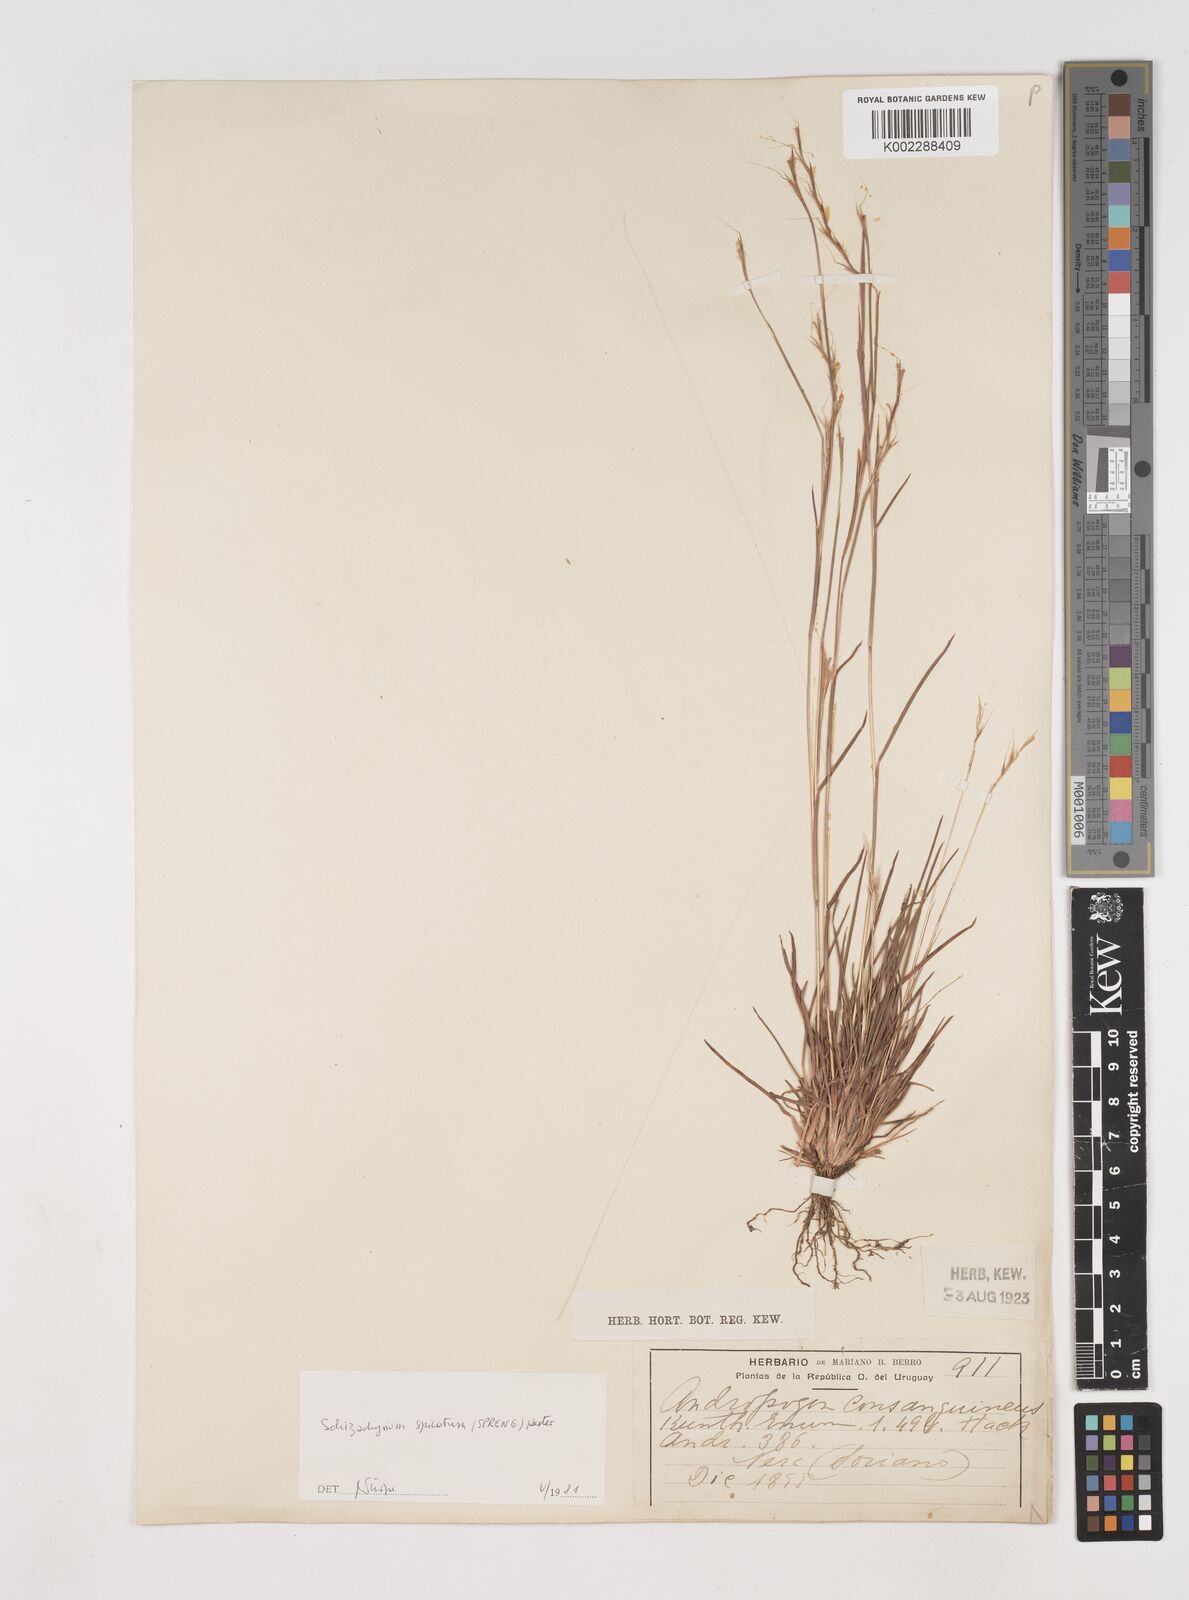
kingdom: Plantae
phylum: Tracheophyta
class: Liliopsida
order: Poales
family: Poaceae
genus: Schizachyrium
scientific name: Schizachyrium spicatum
